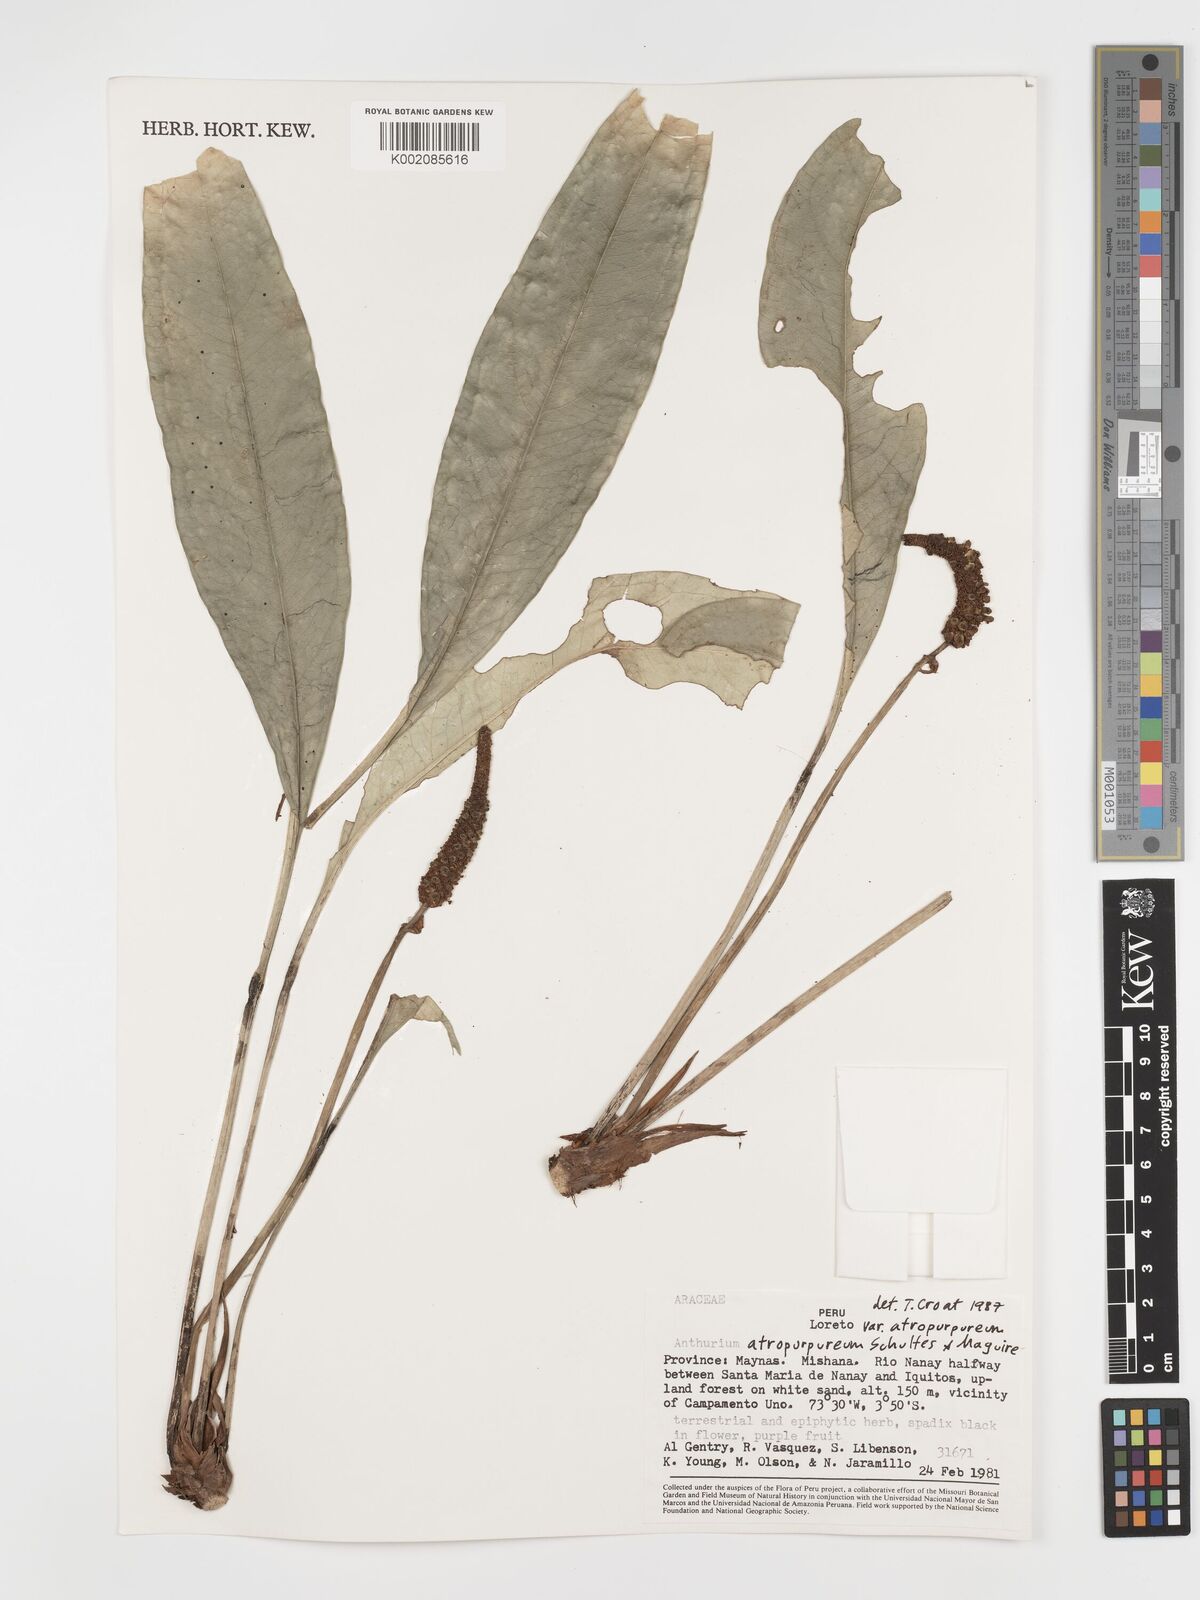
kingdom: Plantae
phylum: Tracheophyta
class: Liliopsida
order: Alismatales
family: Araceae
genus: Anthurium
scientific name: Anthurium atropurpureum
